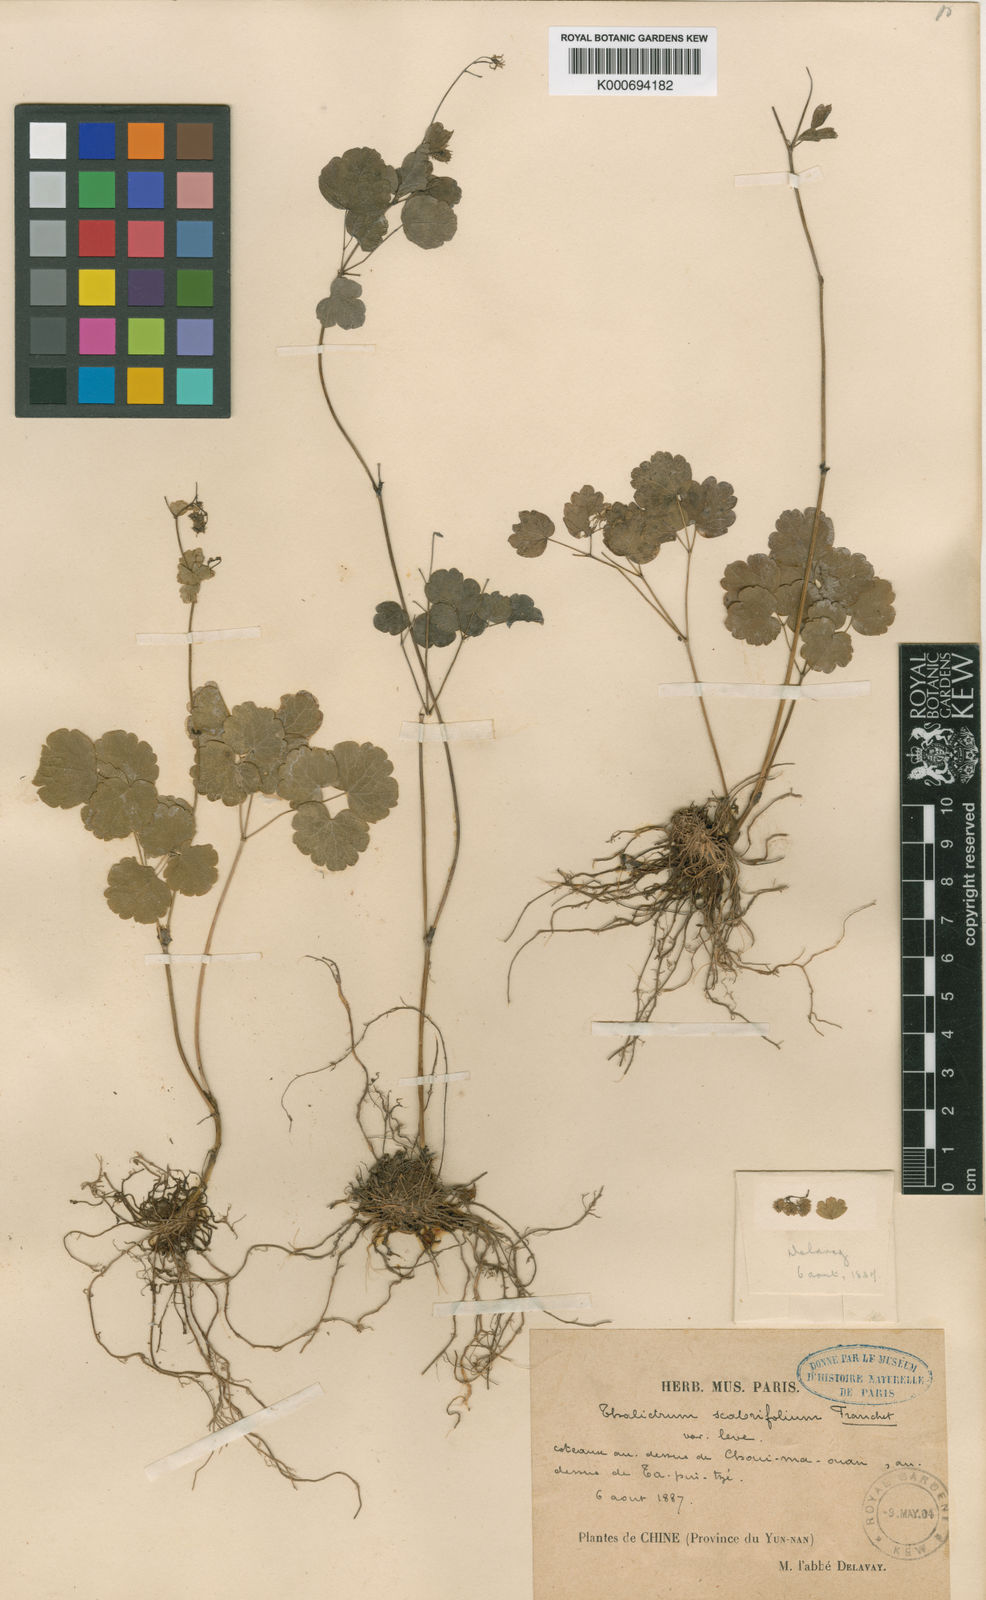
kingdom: Plantae
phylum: Tracheophyta
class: Magnoliopsida
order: Ranunculales
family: Ranunculaceae
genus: Thalictrum
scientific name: Thalictrum calcicolum
